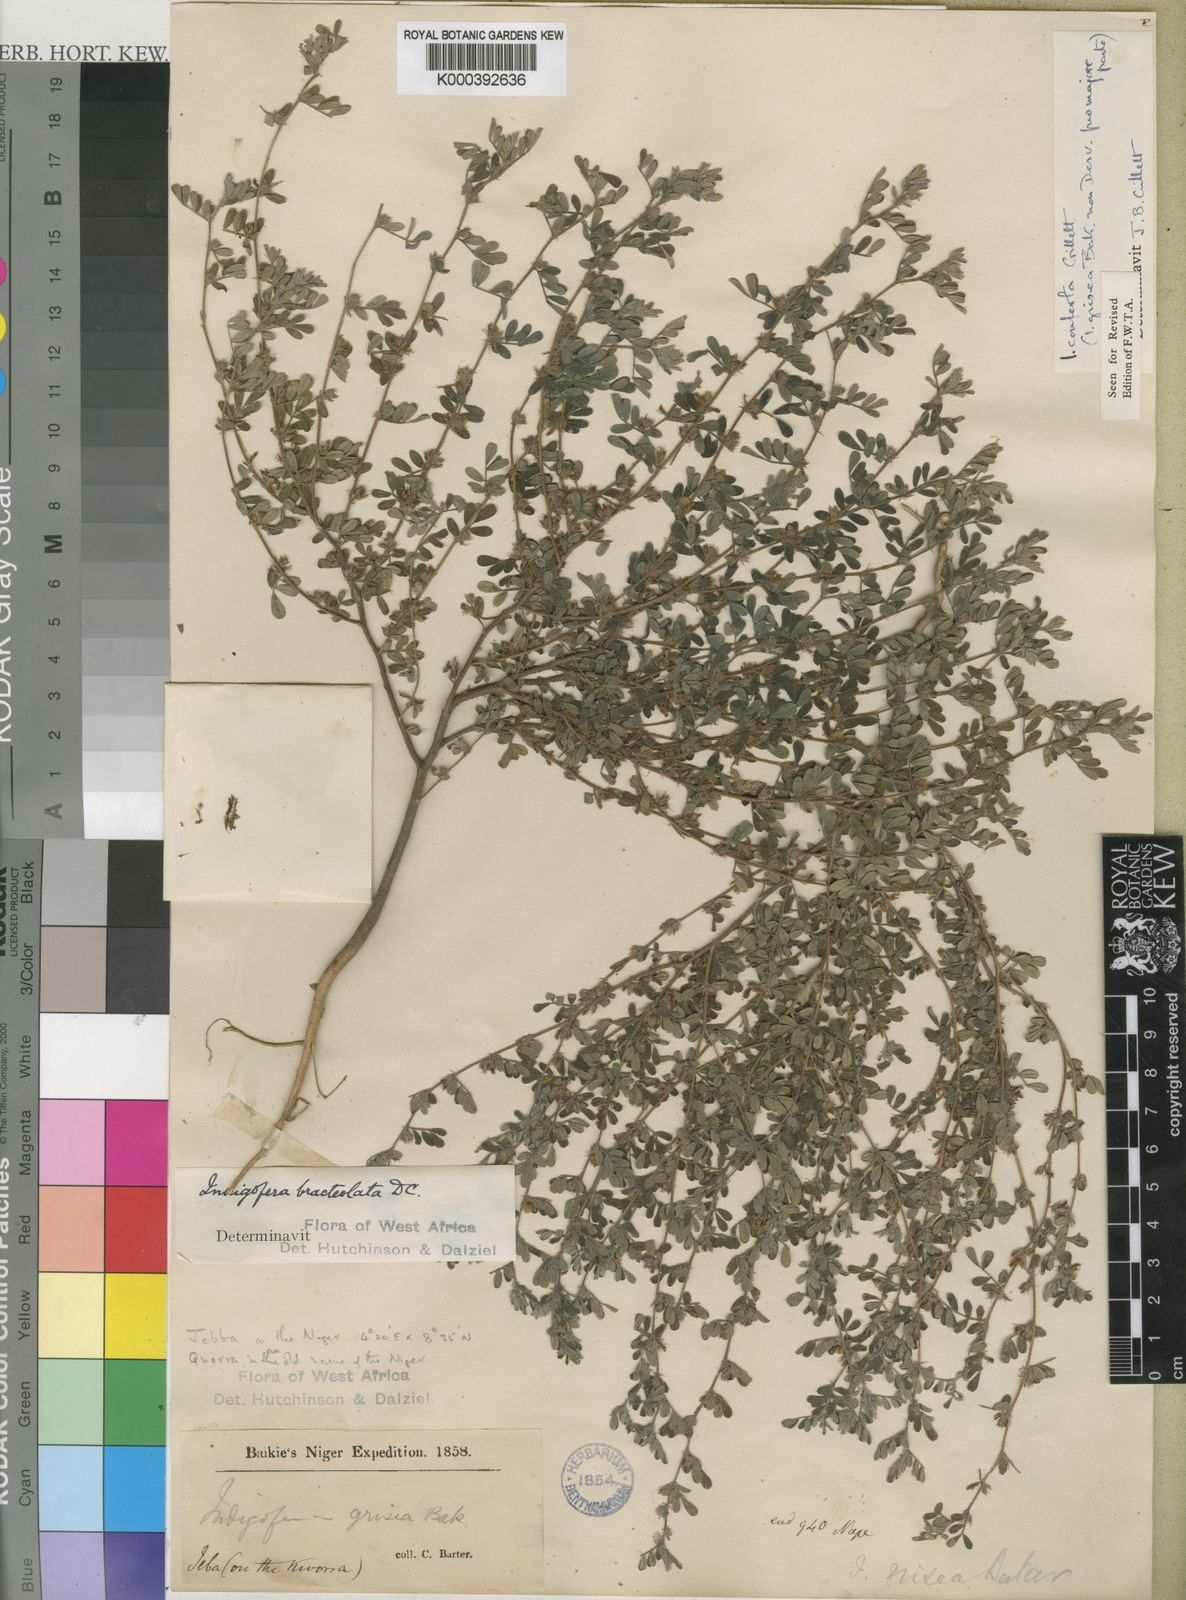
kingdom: Plantae
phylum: Tracheophyta
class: Magnoliopsida
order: Fabales
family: Fabaceae
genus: Indigofera
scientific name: Indigofera conferta
